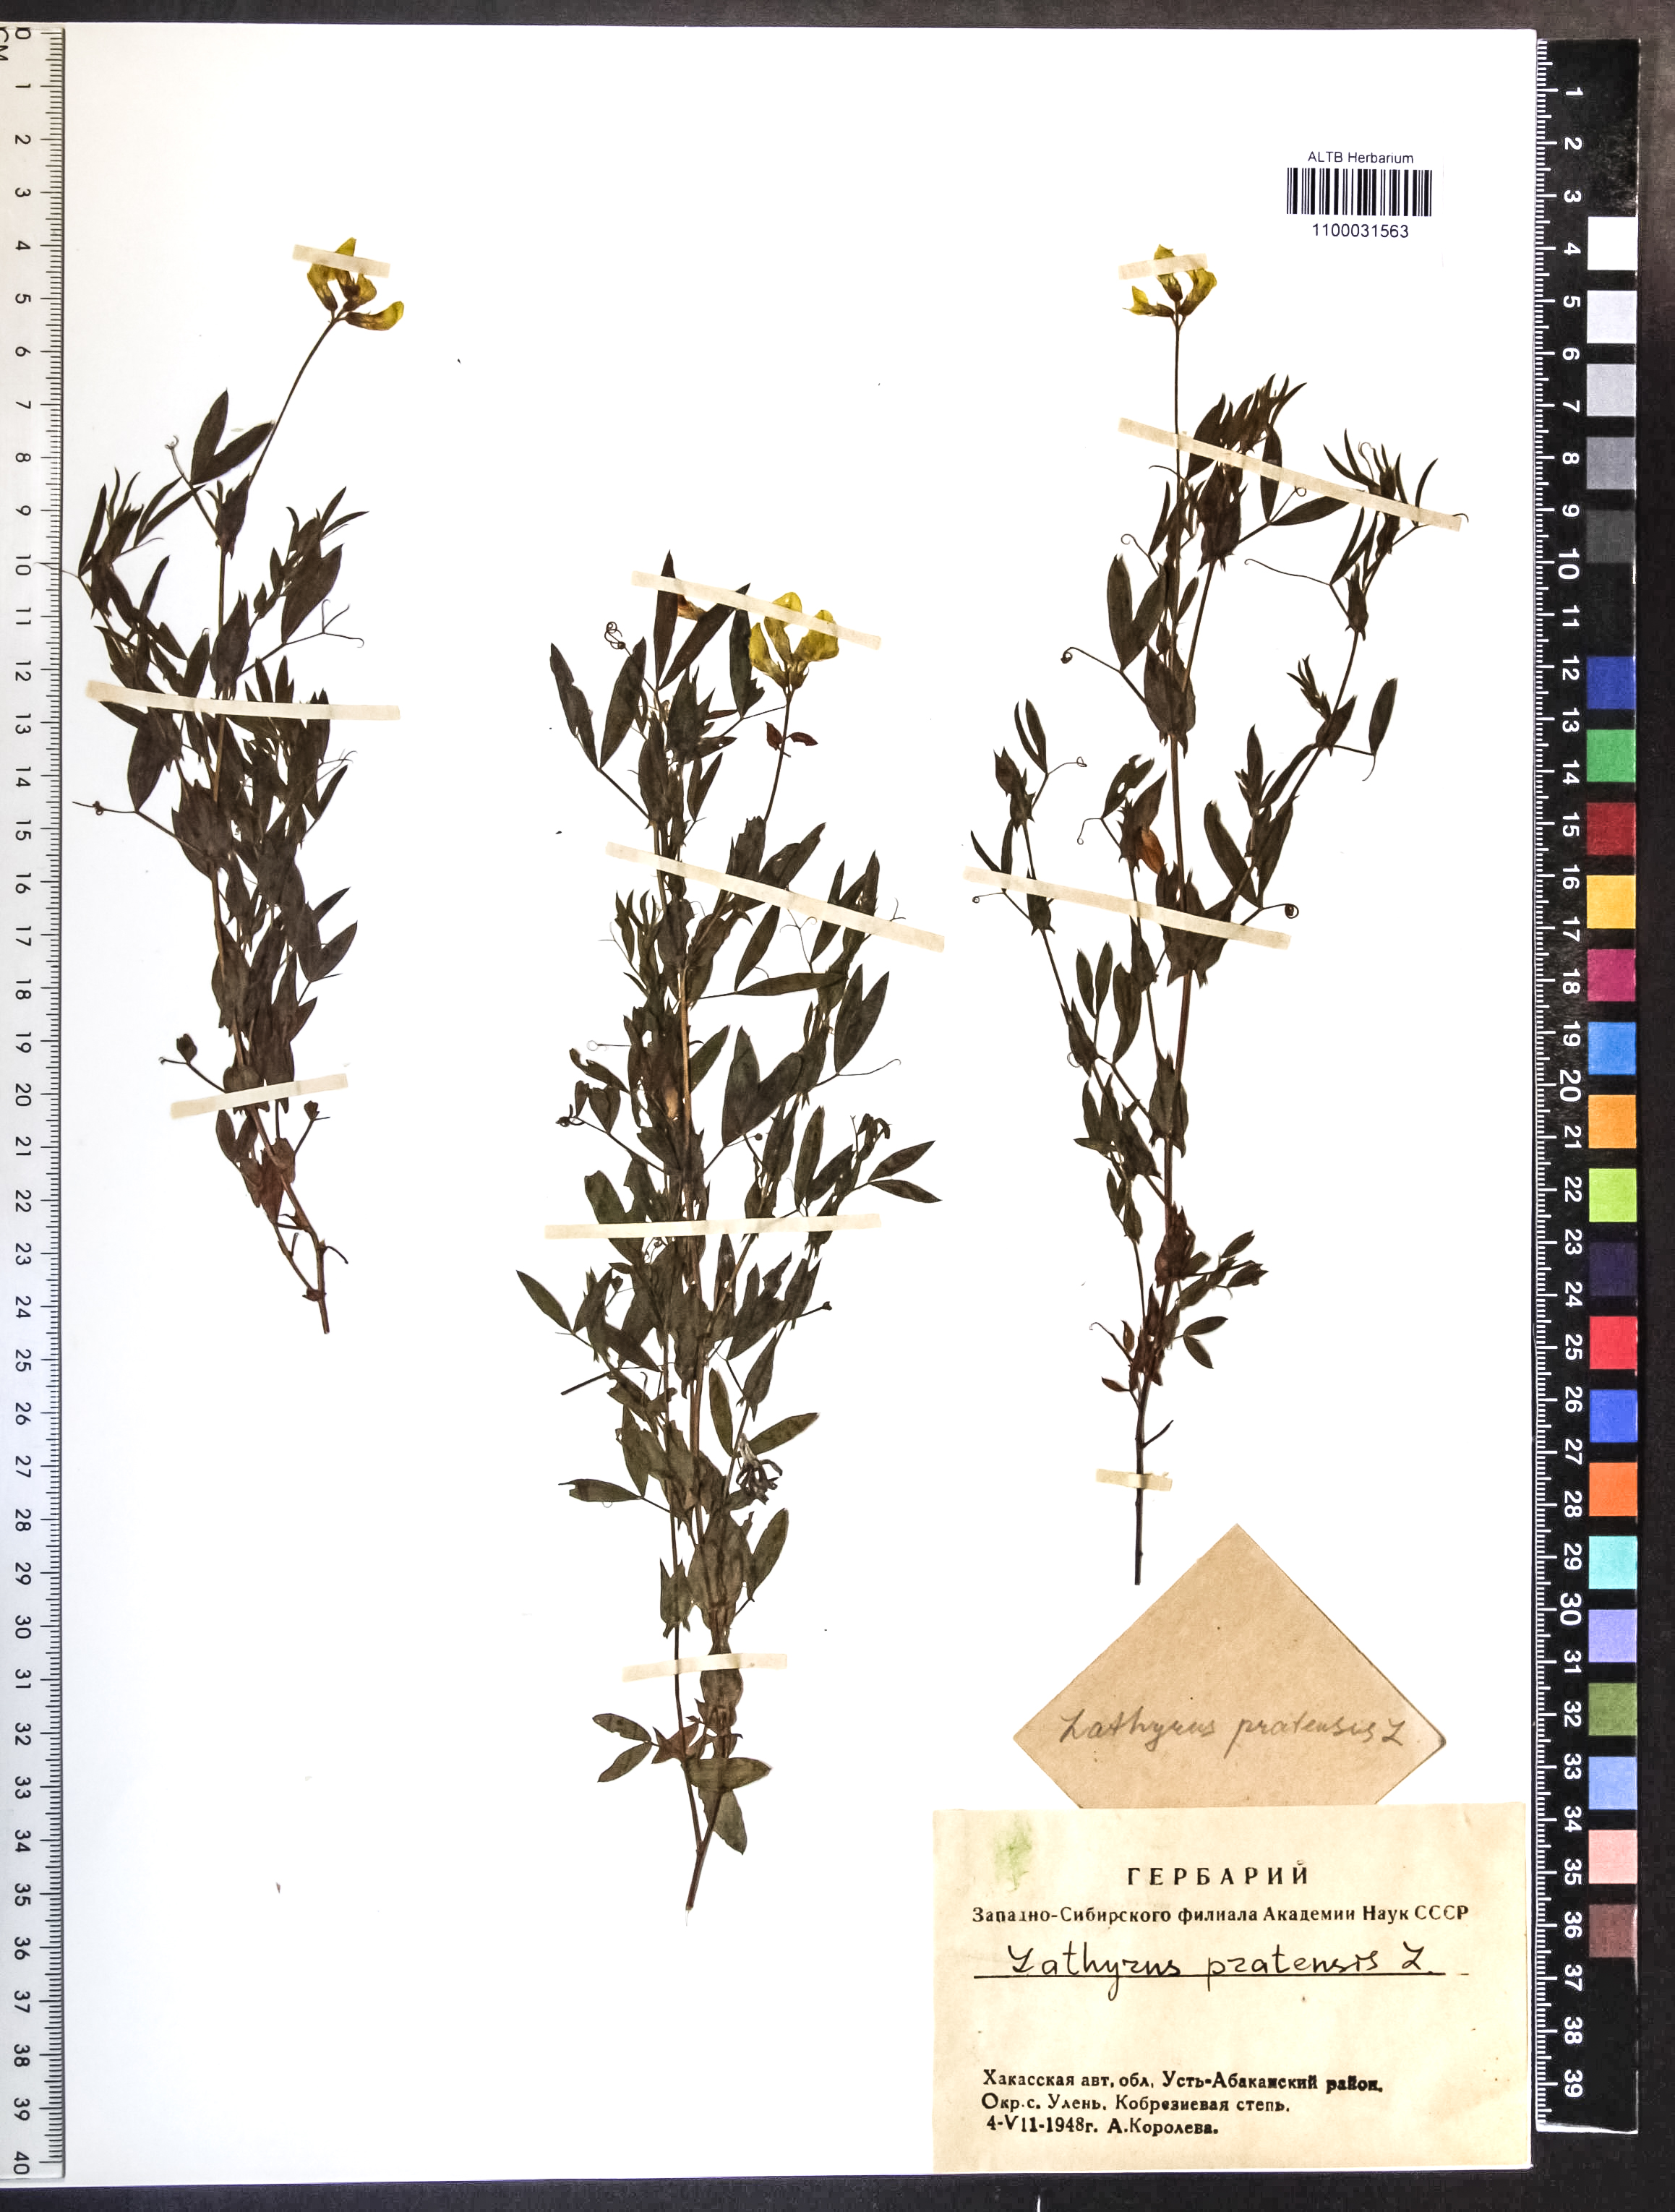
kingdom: Plantae
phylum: Tracheophyta
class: Magnoliopsida
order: Fabales
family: Fabaceae
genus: Lathyrus
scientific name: Lathyrus pratensis
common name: Meadow vetchling
